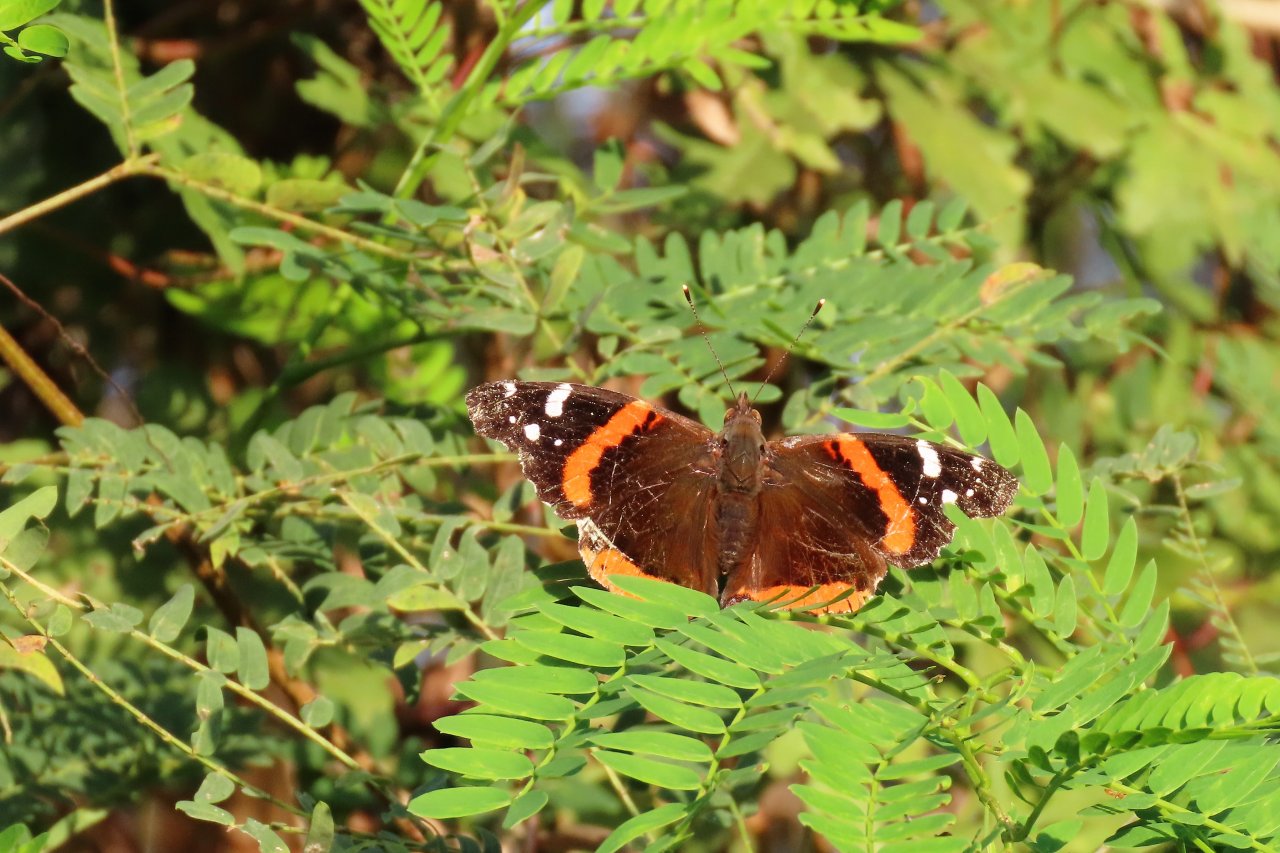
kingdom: Animalia
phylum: Arthropoda
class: Insecta
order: Lepidoptera
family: Nymphalidae
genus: Vanessa
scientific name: Vanessa atalanta
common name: Red Admiral
